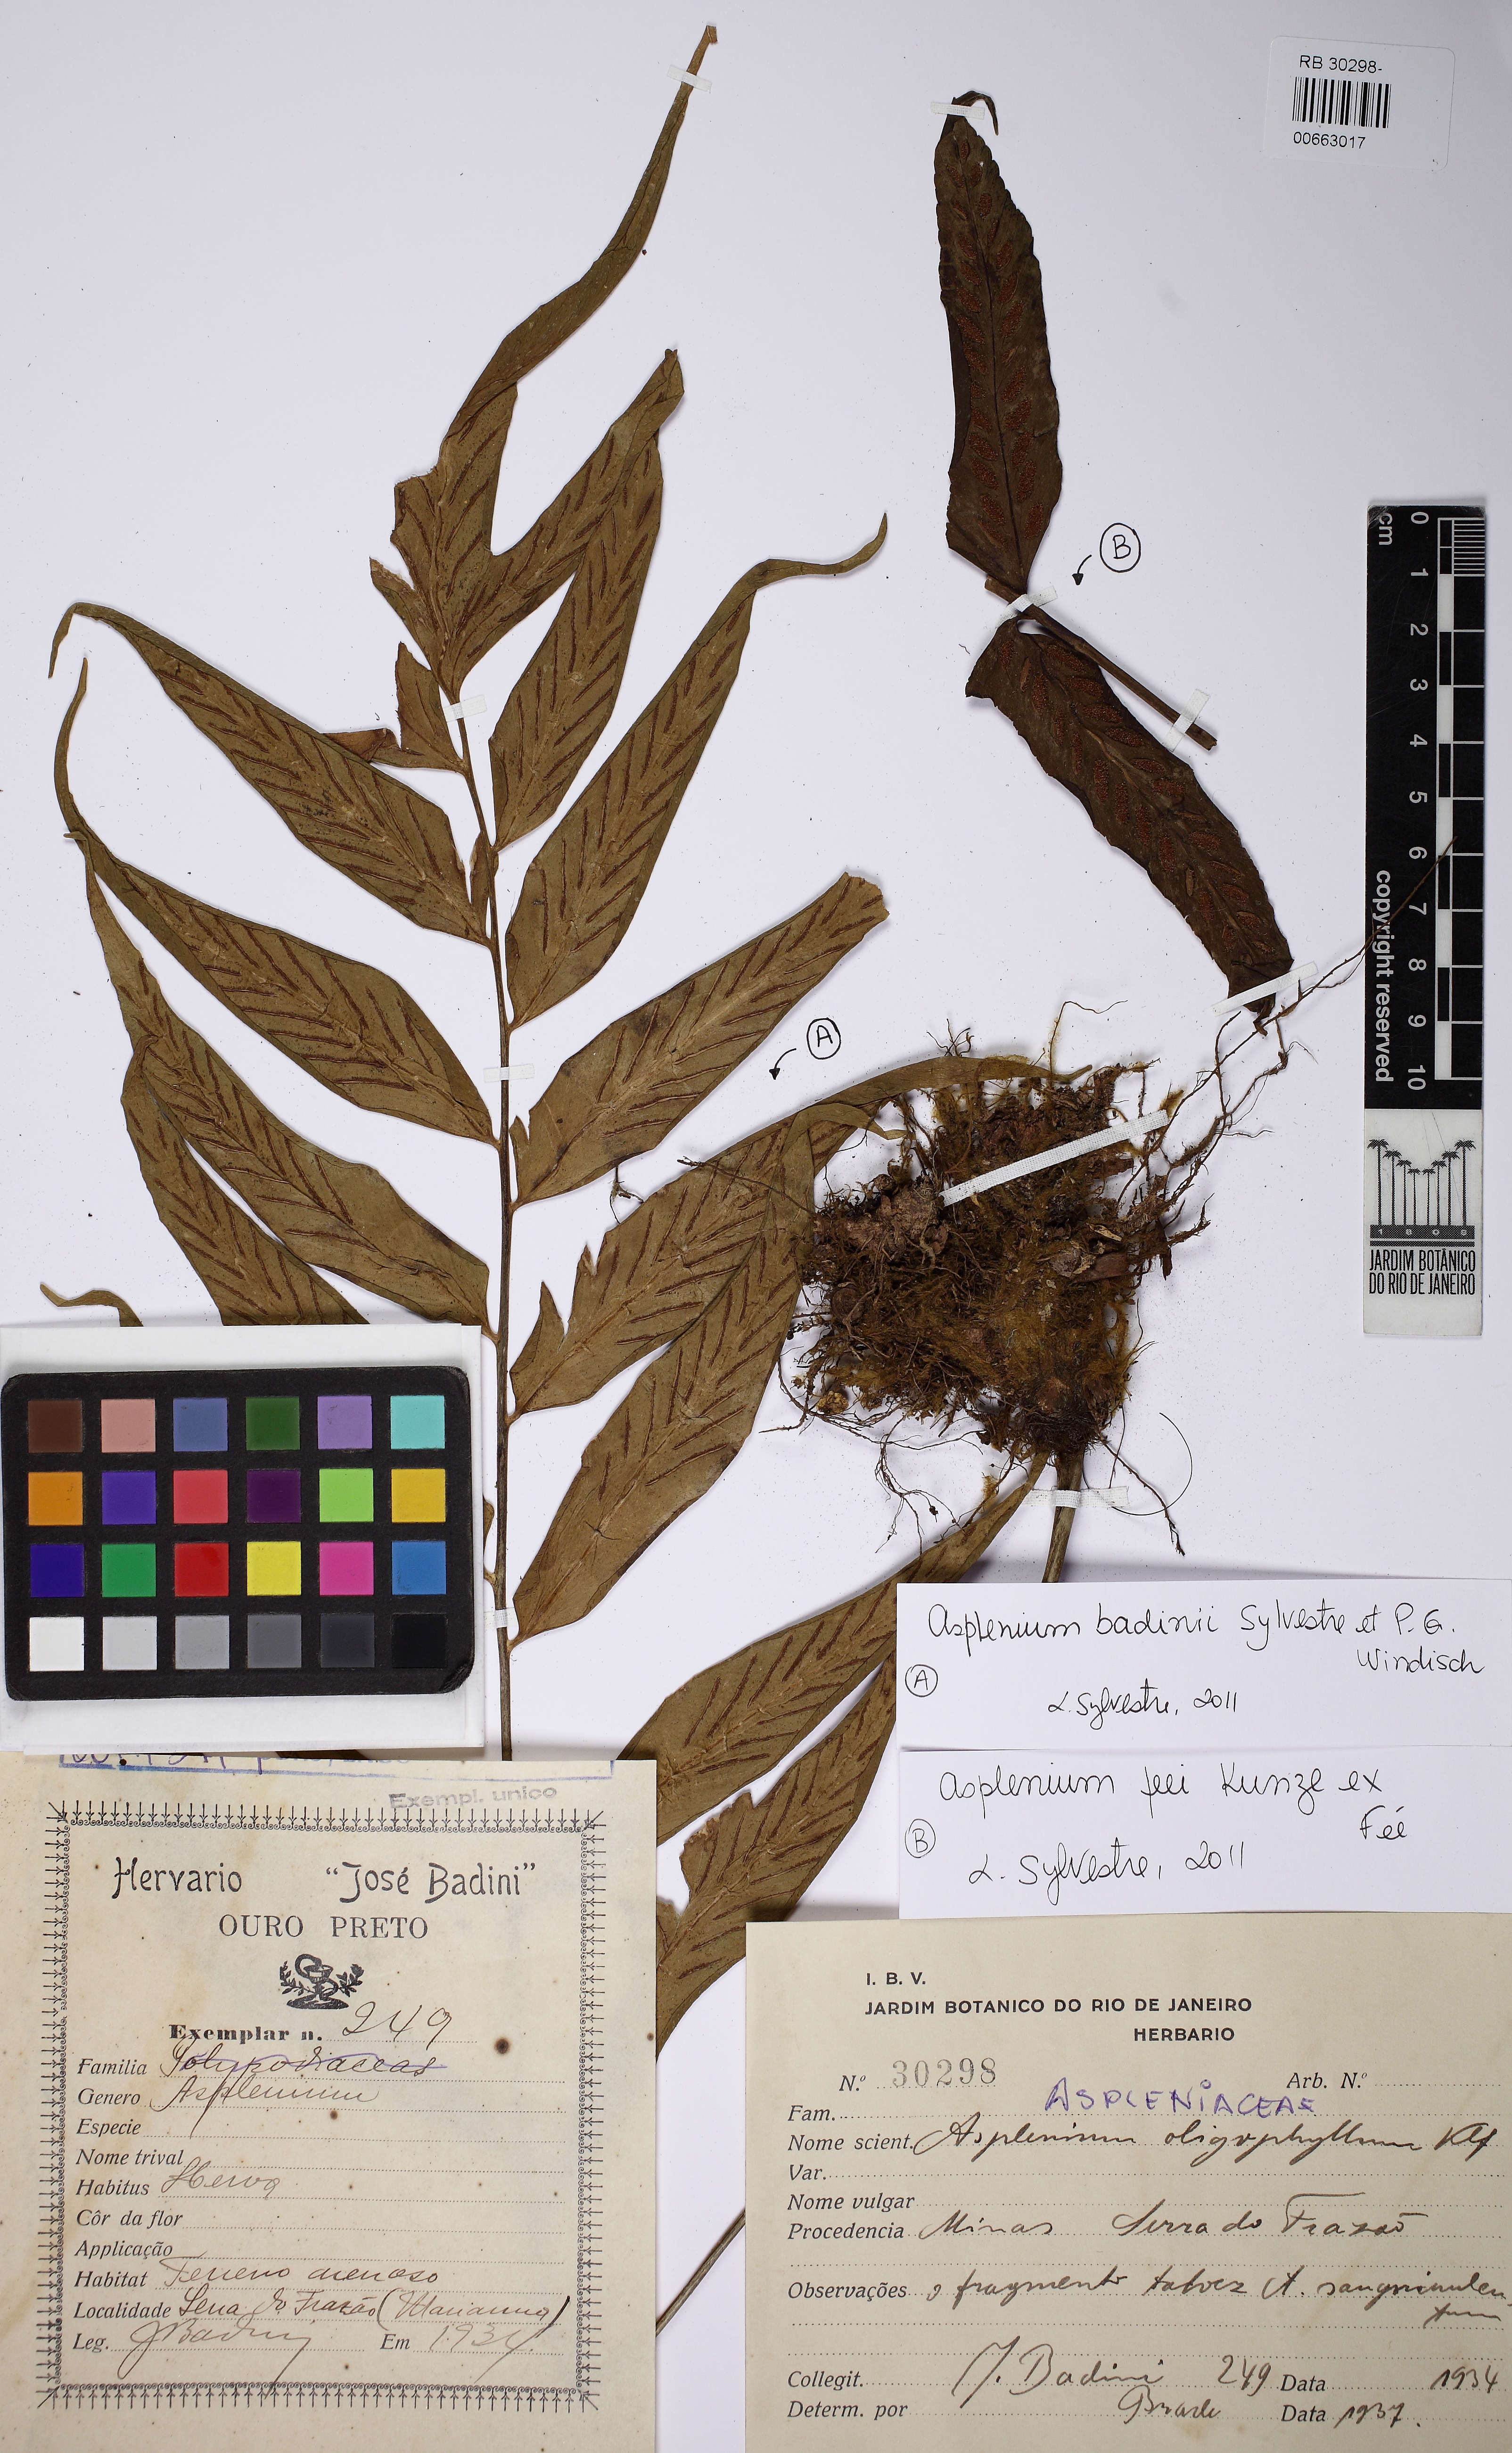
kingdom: Plantae
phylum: Tracheophyta
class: Polypodiopsida
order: Polypodiales
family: Aspleniaceae
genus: Asplenium
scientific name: Asplenium badinii
